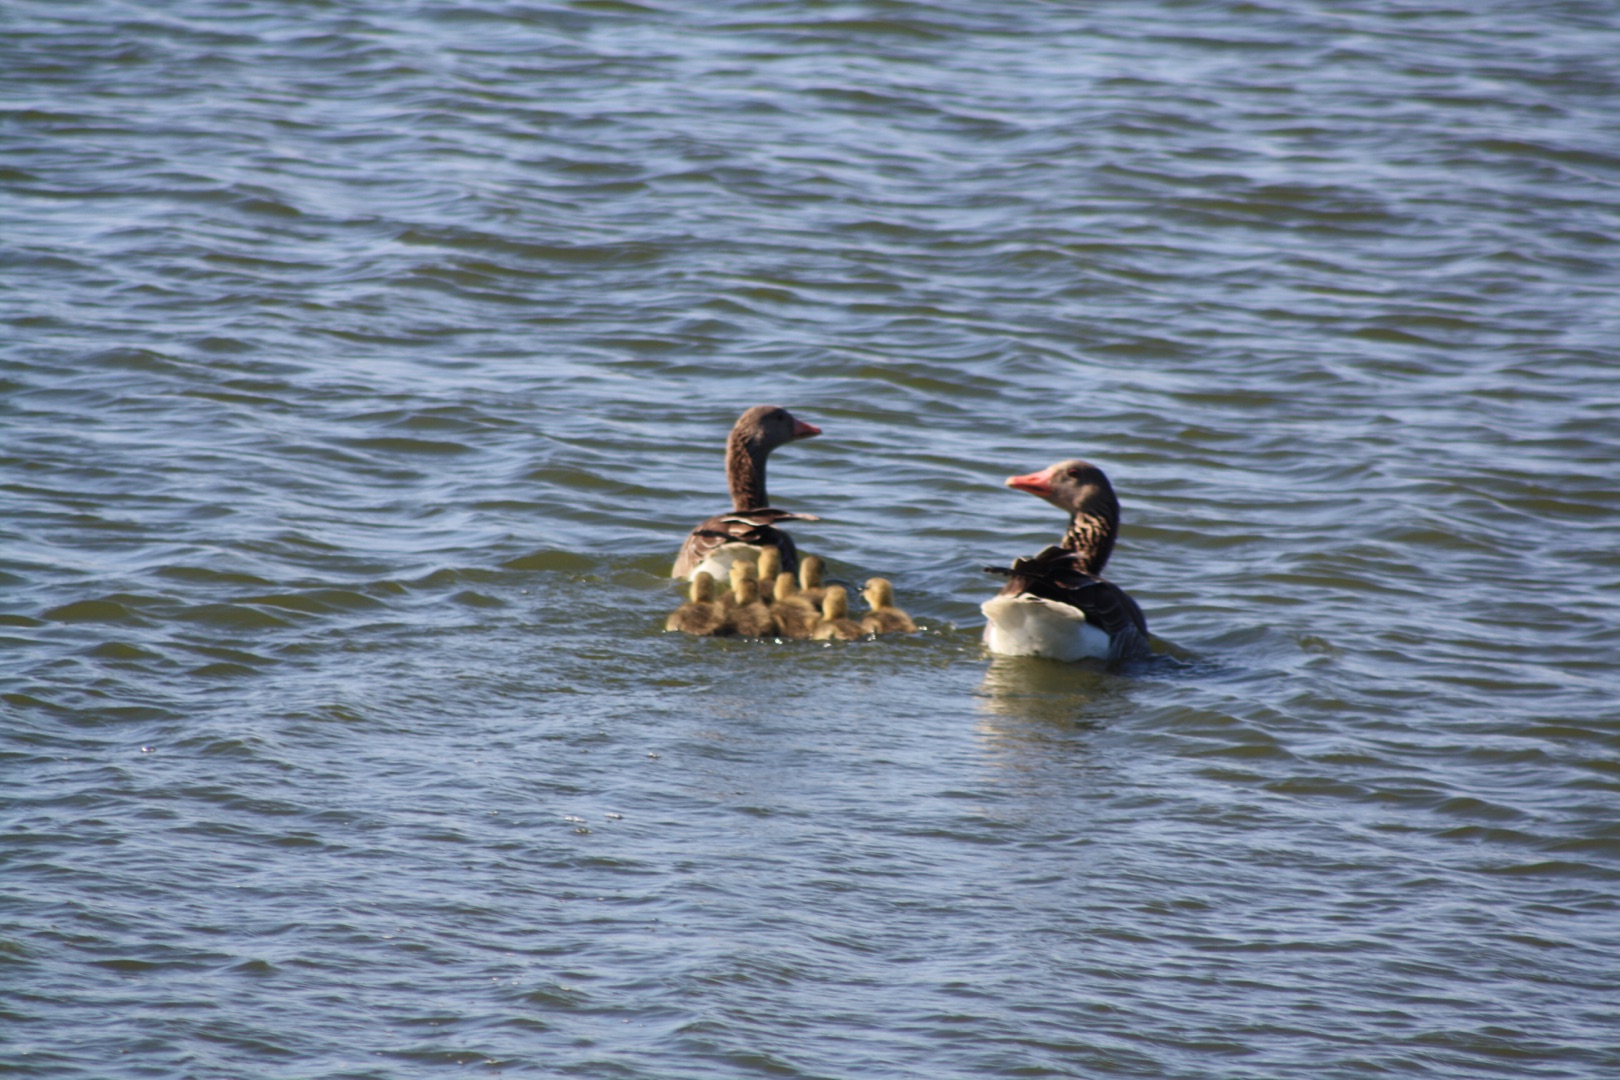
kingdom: Animalia
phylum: Chordata
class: Aves
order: Anseriformes
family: Anatidae
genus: Anser
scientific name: Anser anser
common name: Grågås
